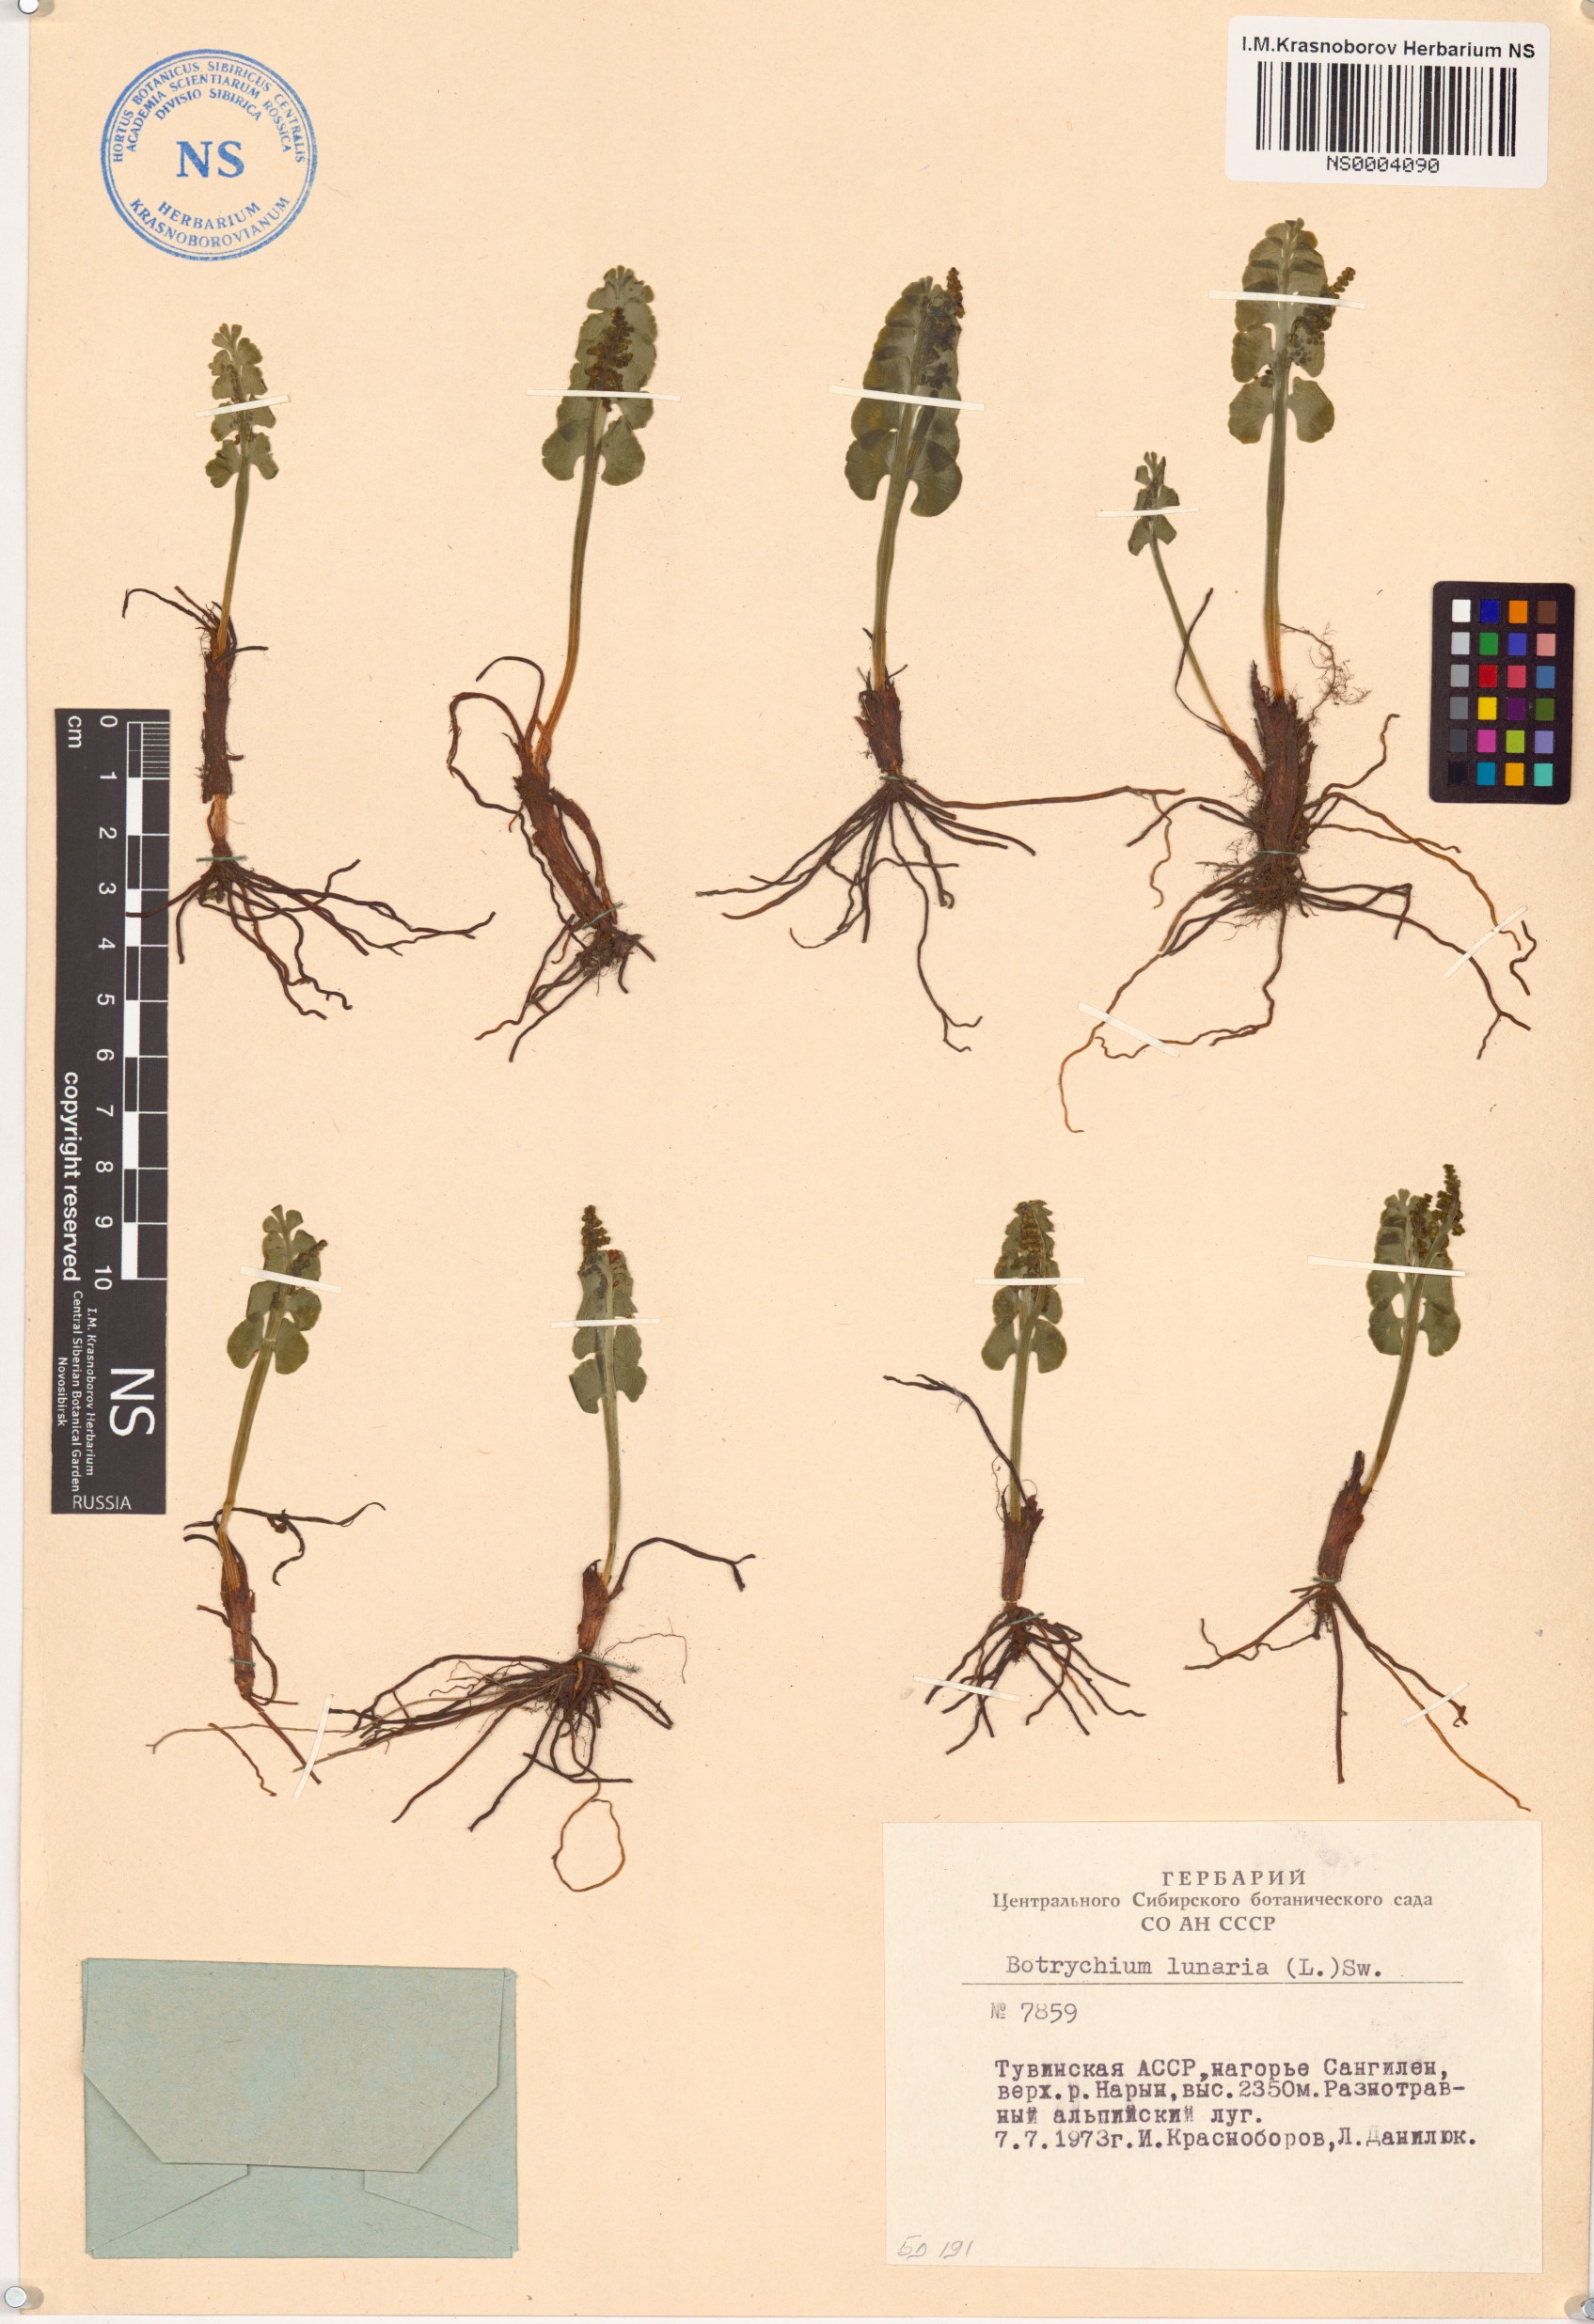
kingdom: Plantae
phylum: Tracheophyta
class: Polypodiopsida
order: Ophioglossales
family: Ophioglossaceae
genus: Botrychium
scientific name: Botrychium lunaria
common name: Moonwort
